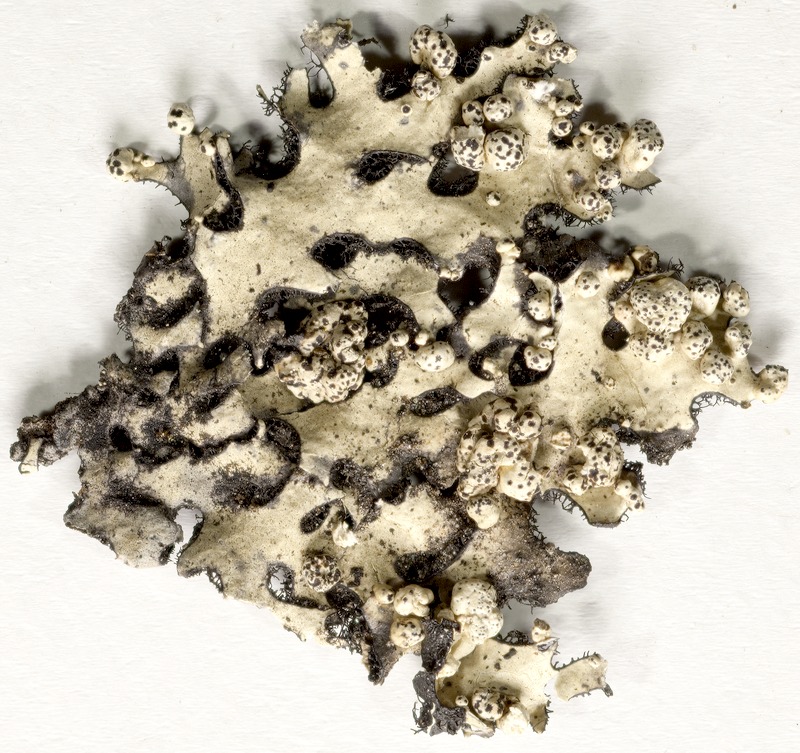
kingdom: Fungi
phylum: Ascomycota
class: Lecanoromycetes
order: Lecanorales
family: Parmeliaceae
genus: Punctelia
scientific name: Punctelia oxyspora
